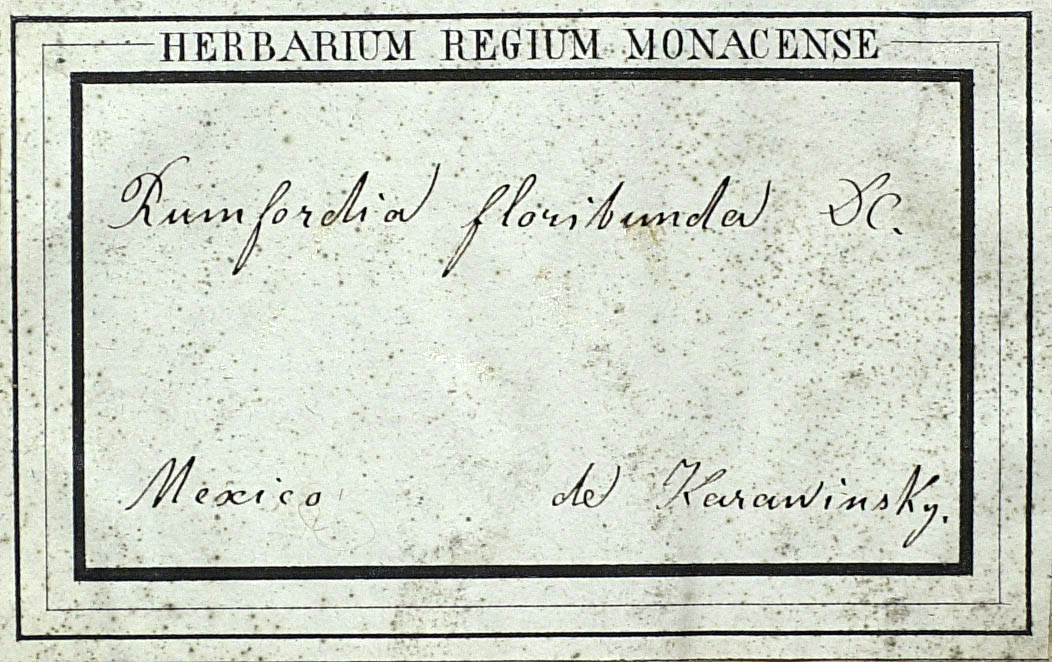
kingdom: Plantae
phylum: Tracheophyta
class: Magnoliopsida
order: Asterales
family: Asteraceae
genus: Rumfordia
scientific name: Rumfordia floribunda
